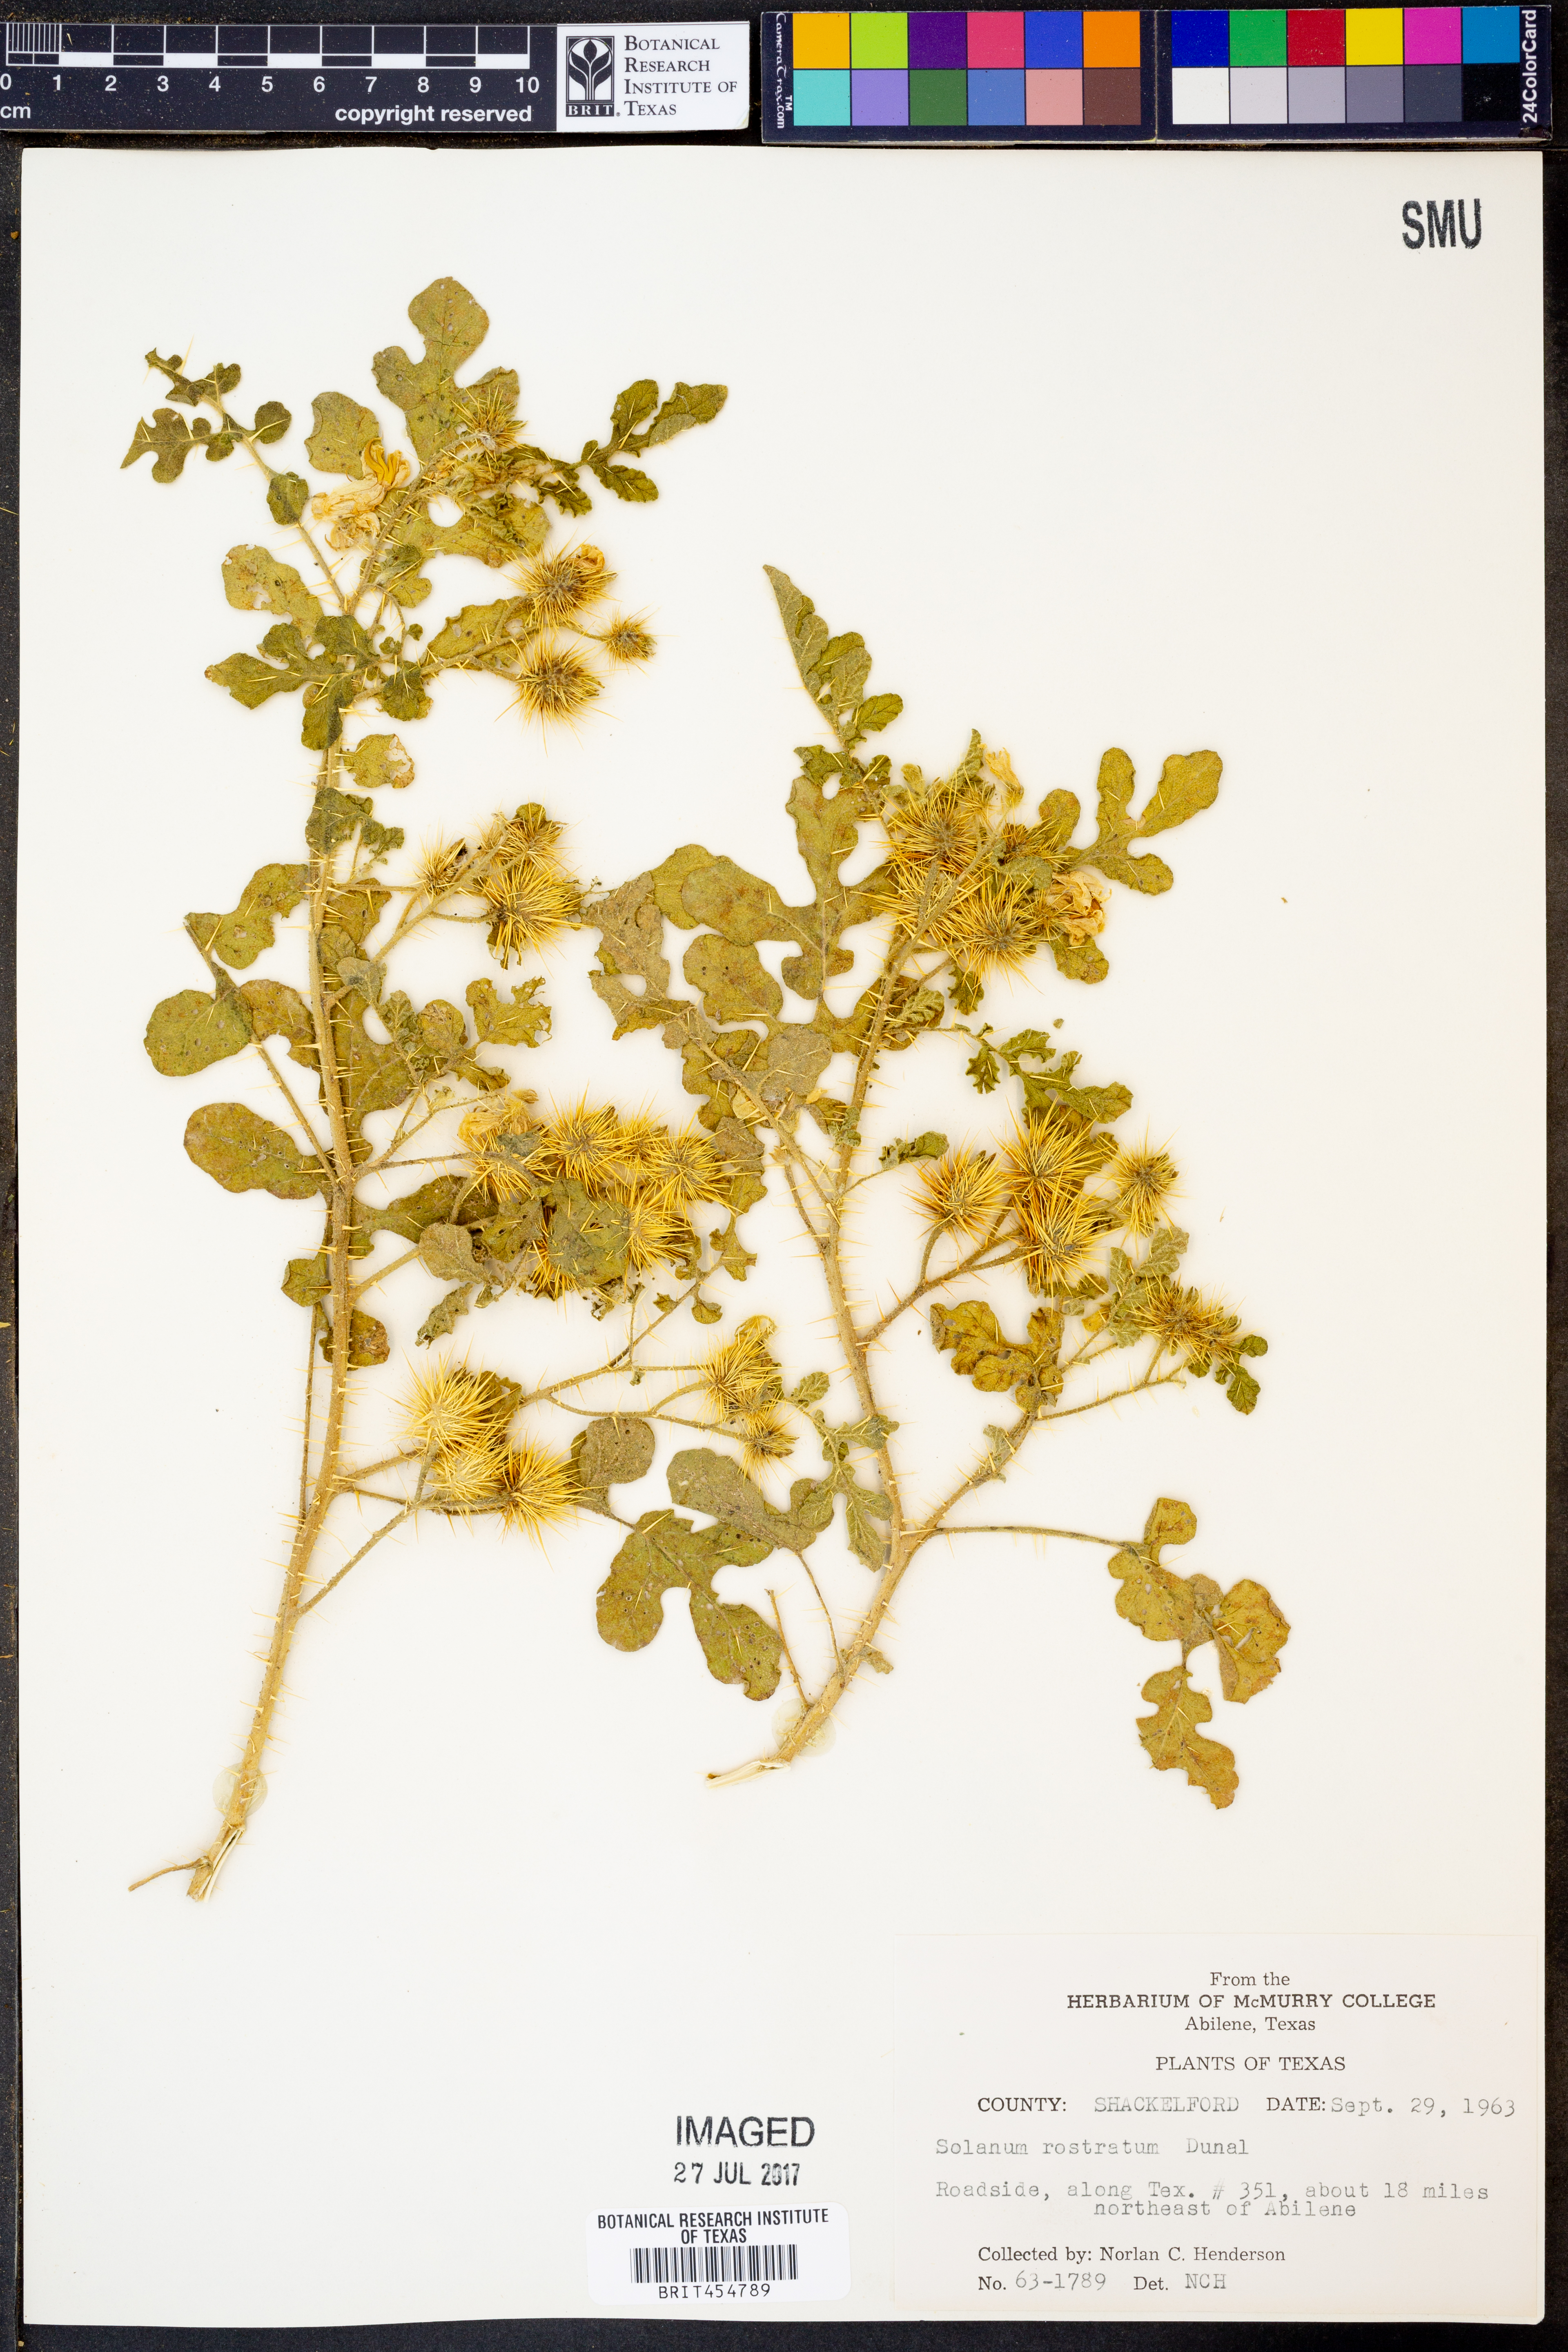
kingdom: Plantae
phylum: Tracheophyta
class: Magnoliopsida
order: Solanales
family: Solanaceae
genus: Solanum
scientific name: Solanum angustifolium
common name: Buffalobur nightshade
